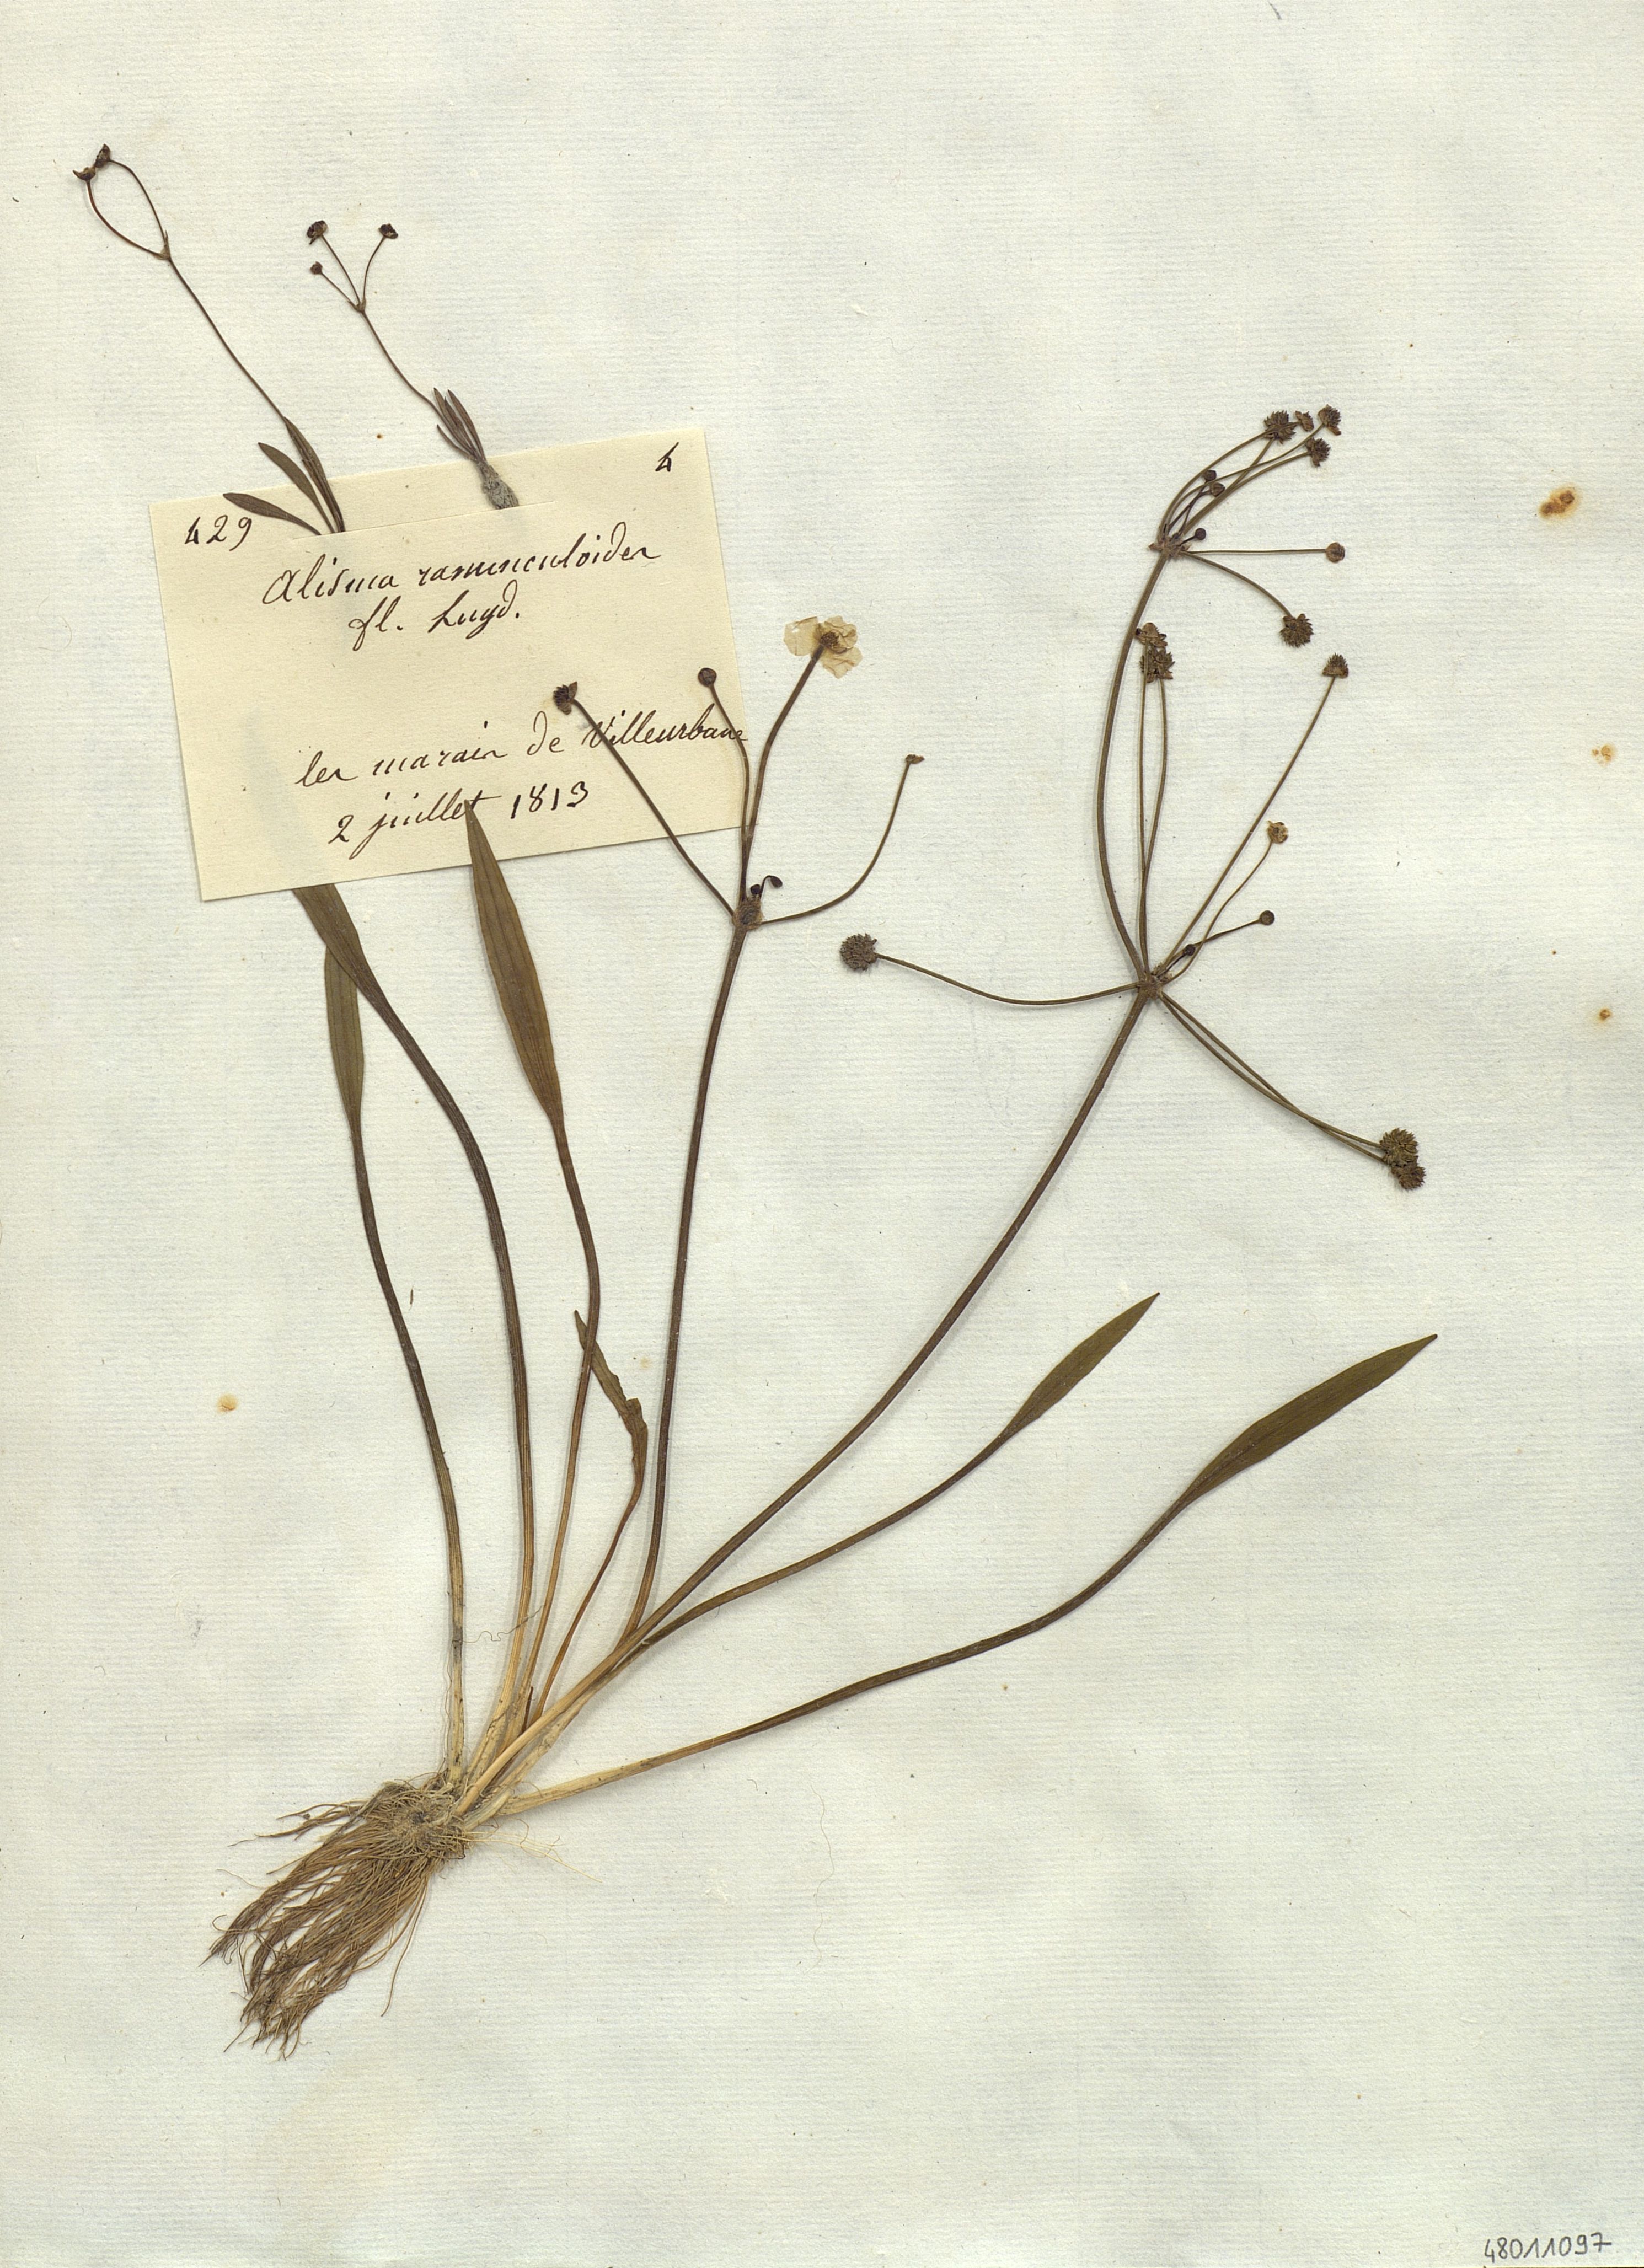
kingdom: Plantae
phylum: Tracheophyta
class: Liliopsida
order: Alismatales
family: Alismataceae
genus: Alisma
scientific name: Alisma ranunculoides
